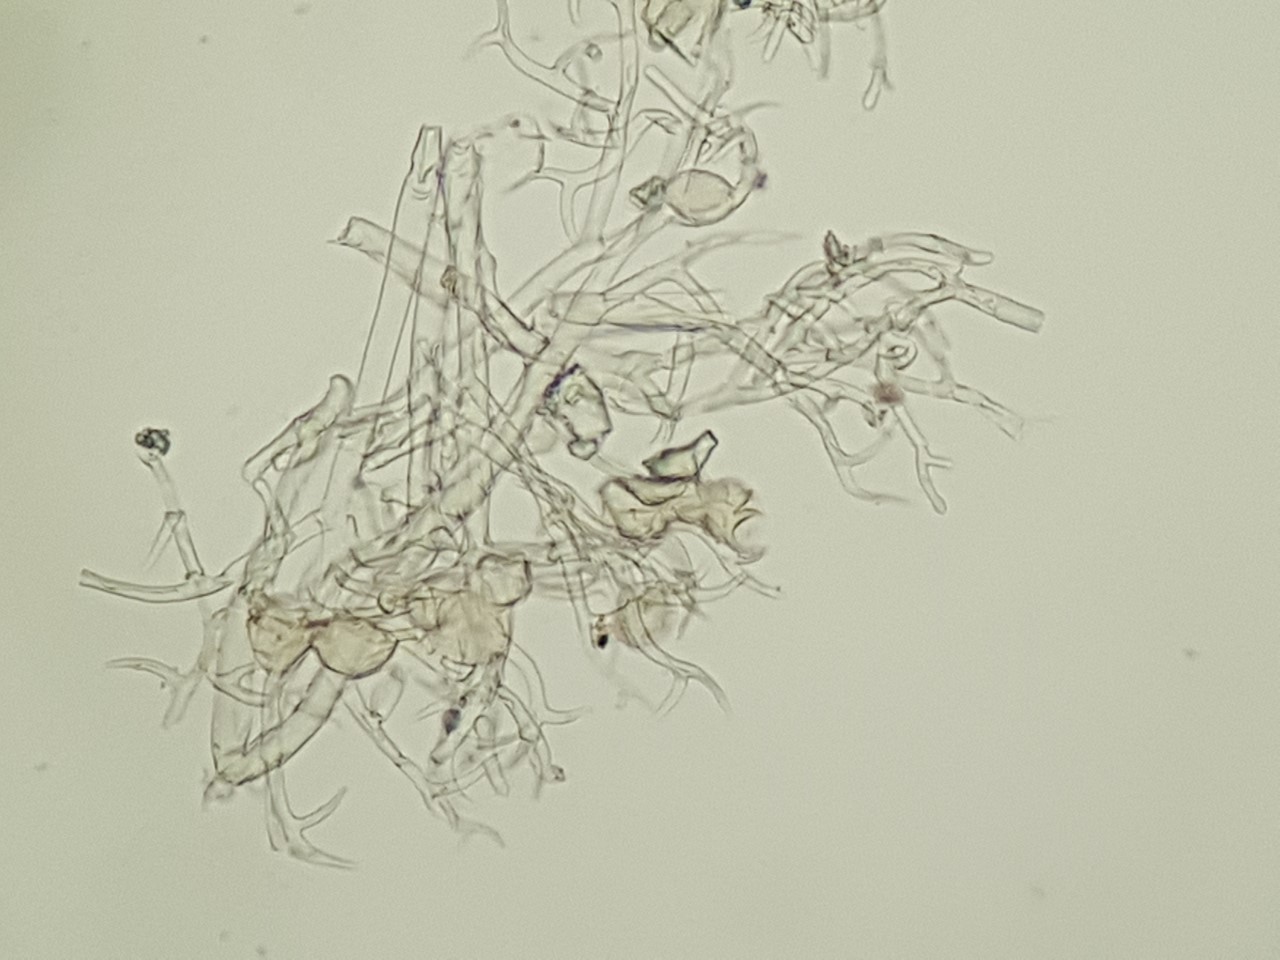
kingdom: Chromista
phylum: Oomycota
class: Peronosporea
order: Peronosporales
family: Peronosporaceae
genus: Peronospora
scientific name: Peronospora ficariae
